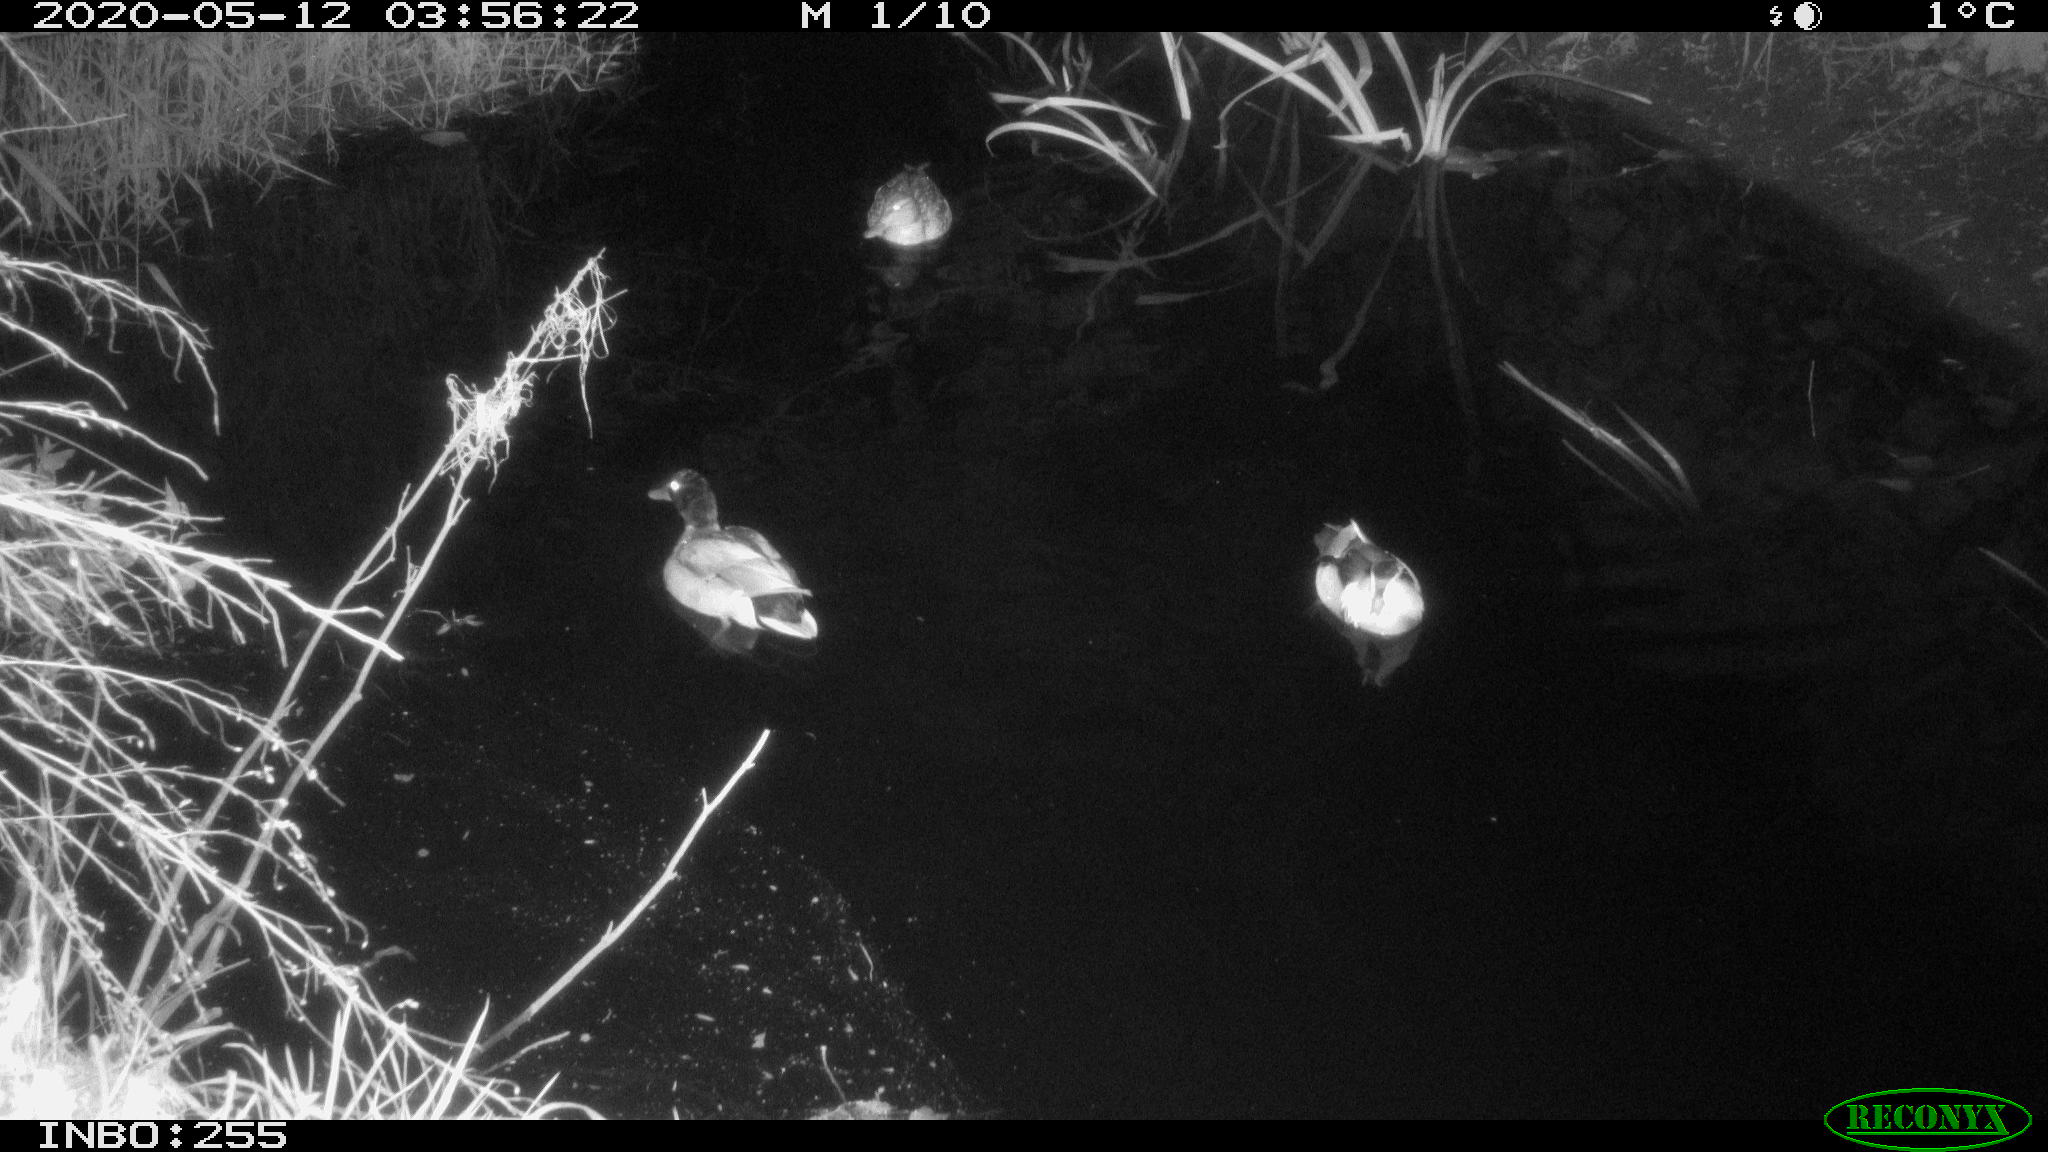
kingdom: Animalia
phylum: Chordata
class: Aves
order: Anseriformes
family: Anatidae
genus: Aix
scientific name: Aix galericulata
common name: Mandarin duck
